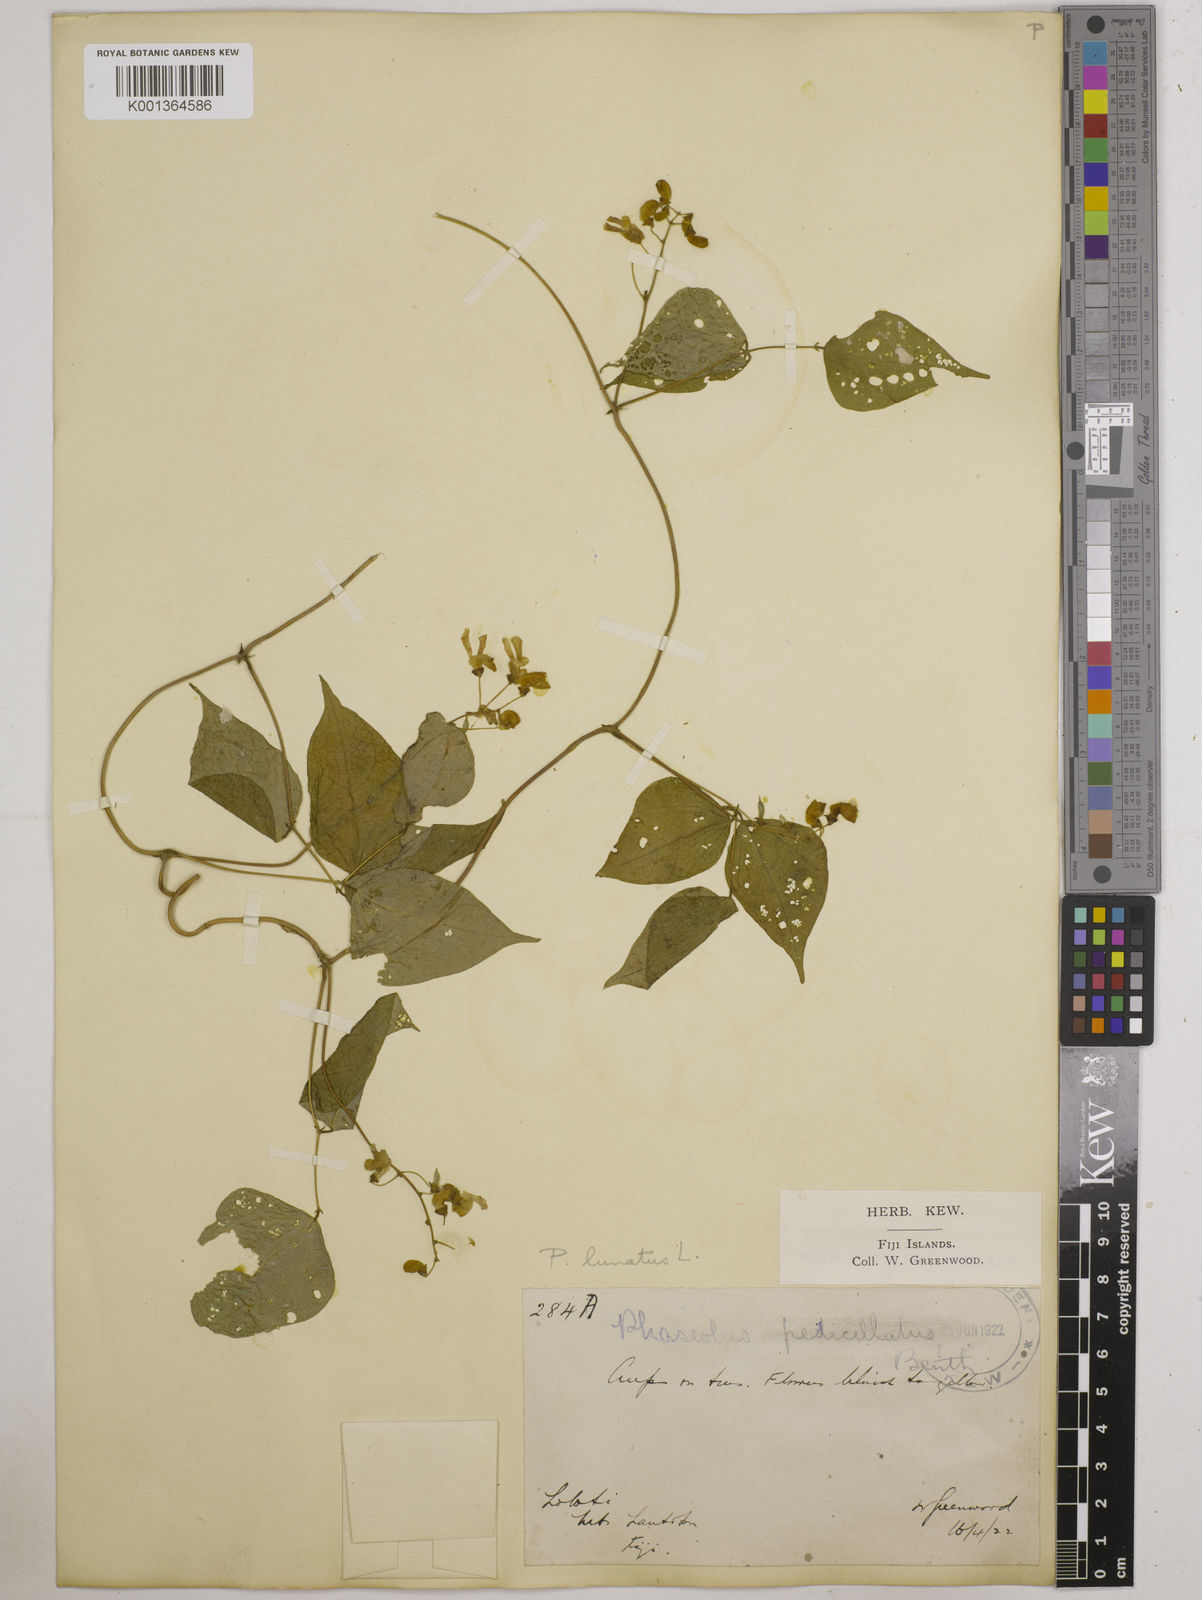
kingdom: Plantae
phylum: Tracheophyta
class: Magnoliopsida
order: Fabales
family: Fabaceae
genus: Phaseolus
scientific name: Phaseolus lunatus
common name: Sieva bean
